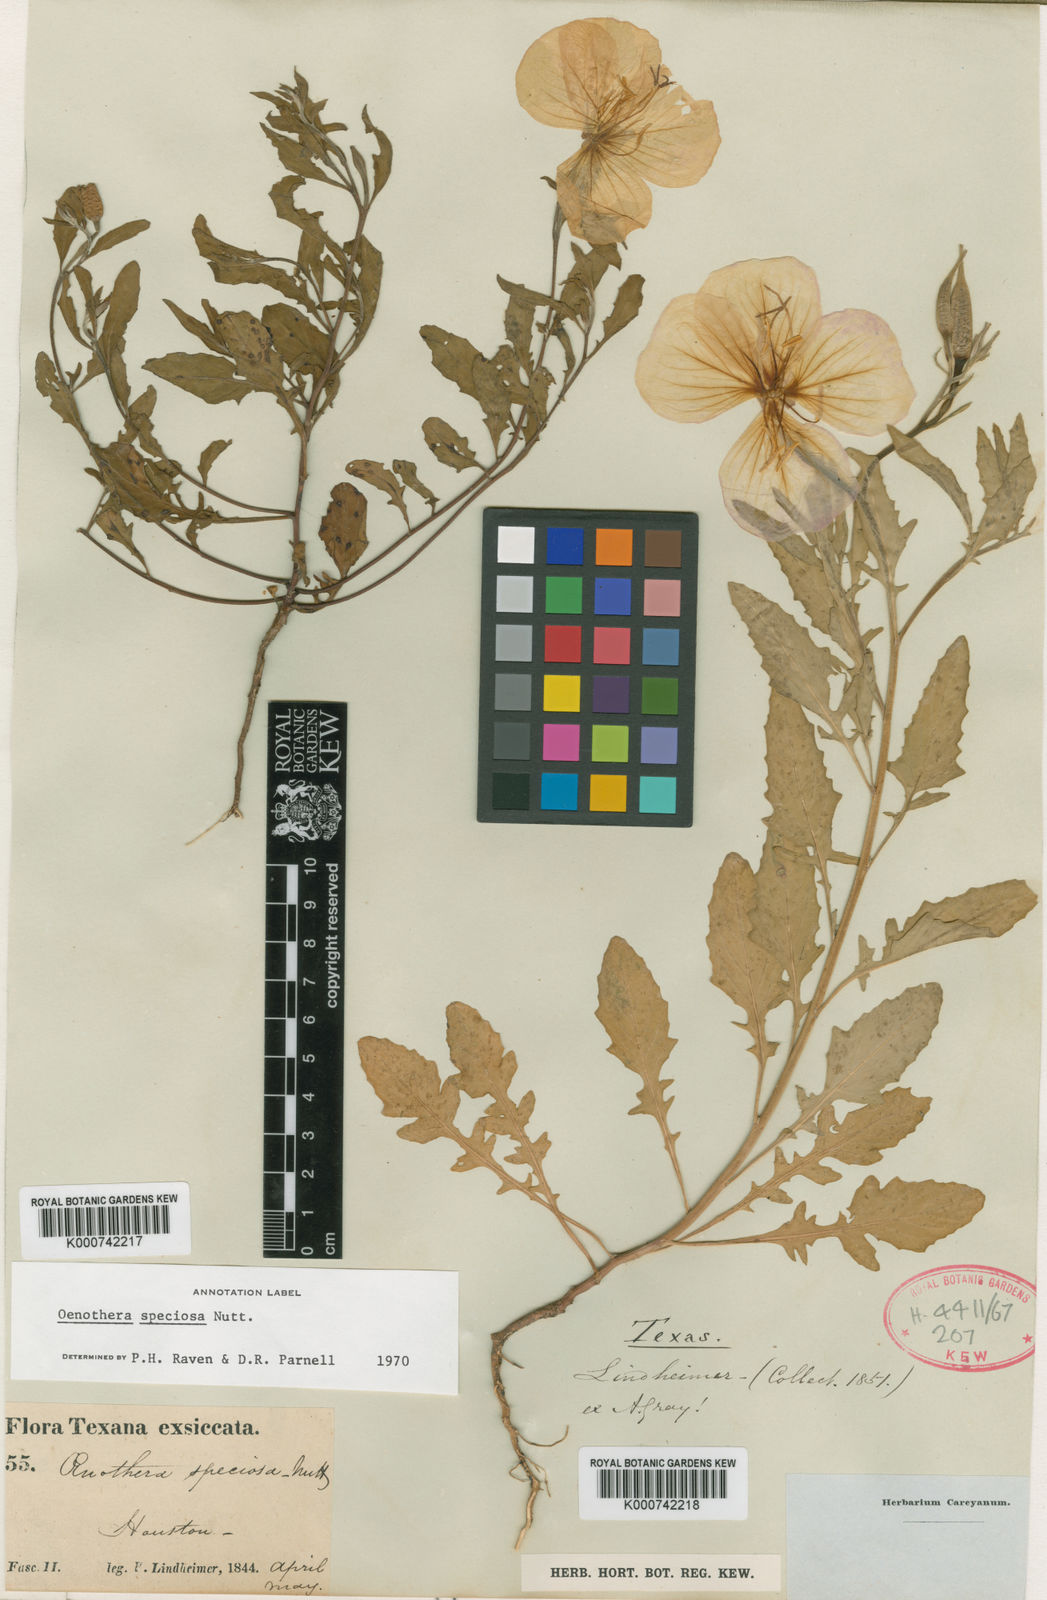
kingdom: Plantae
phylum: Tracheophyta
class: Magnoliopsida
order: Myrtales
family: Onagraceae
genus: Oenothera
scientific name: Oenothera speciosa
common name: White evening-primrose
